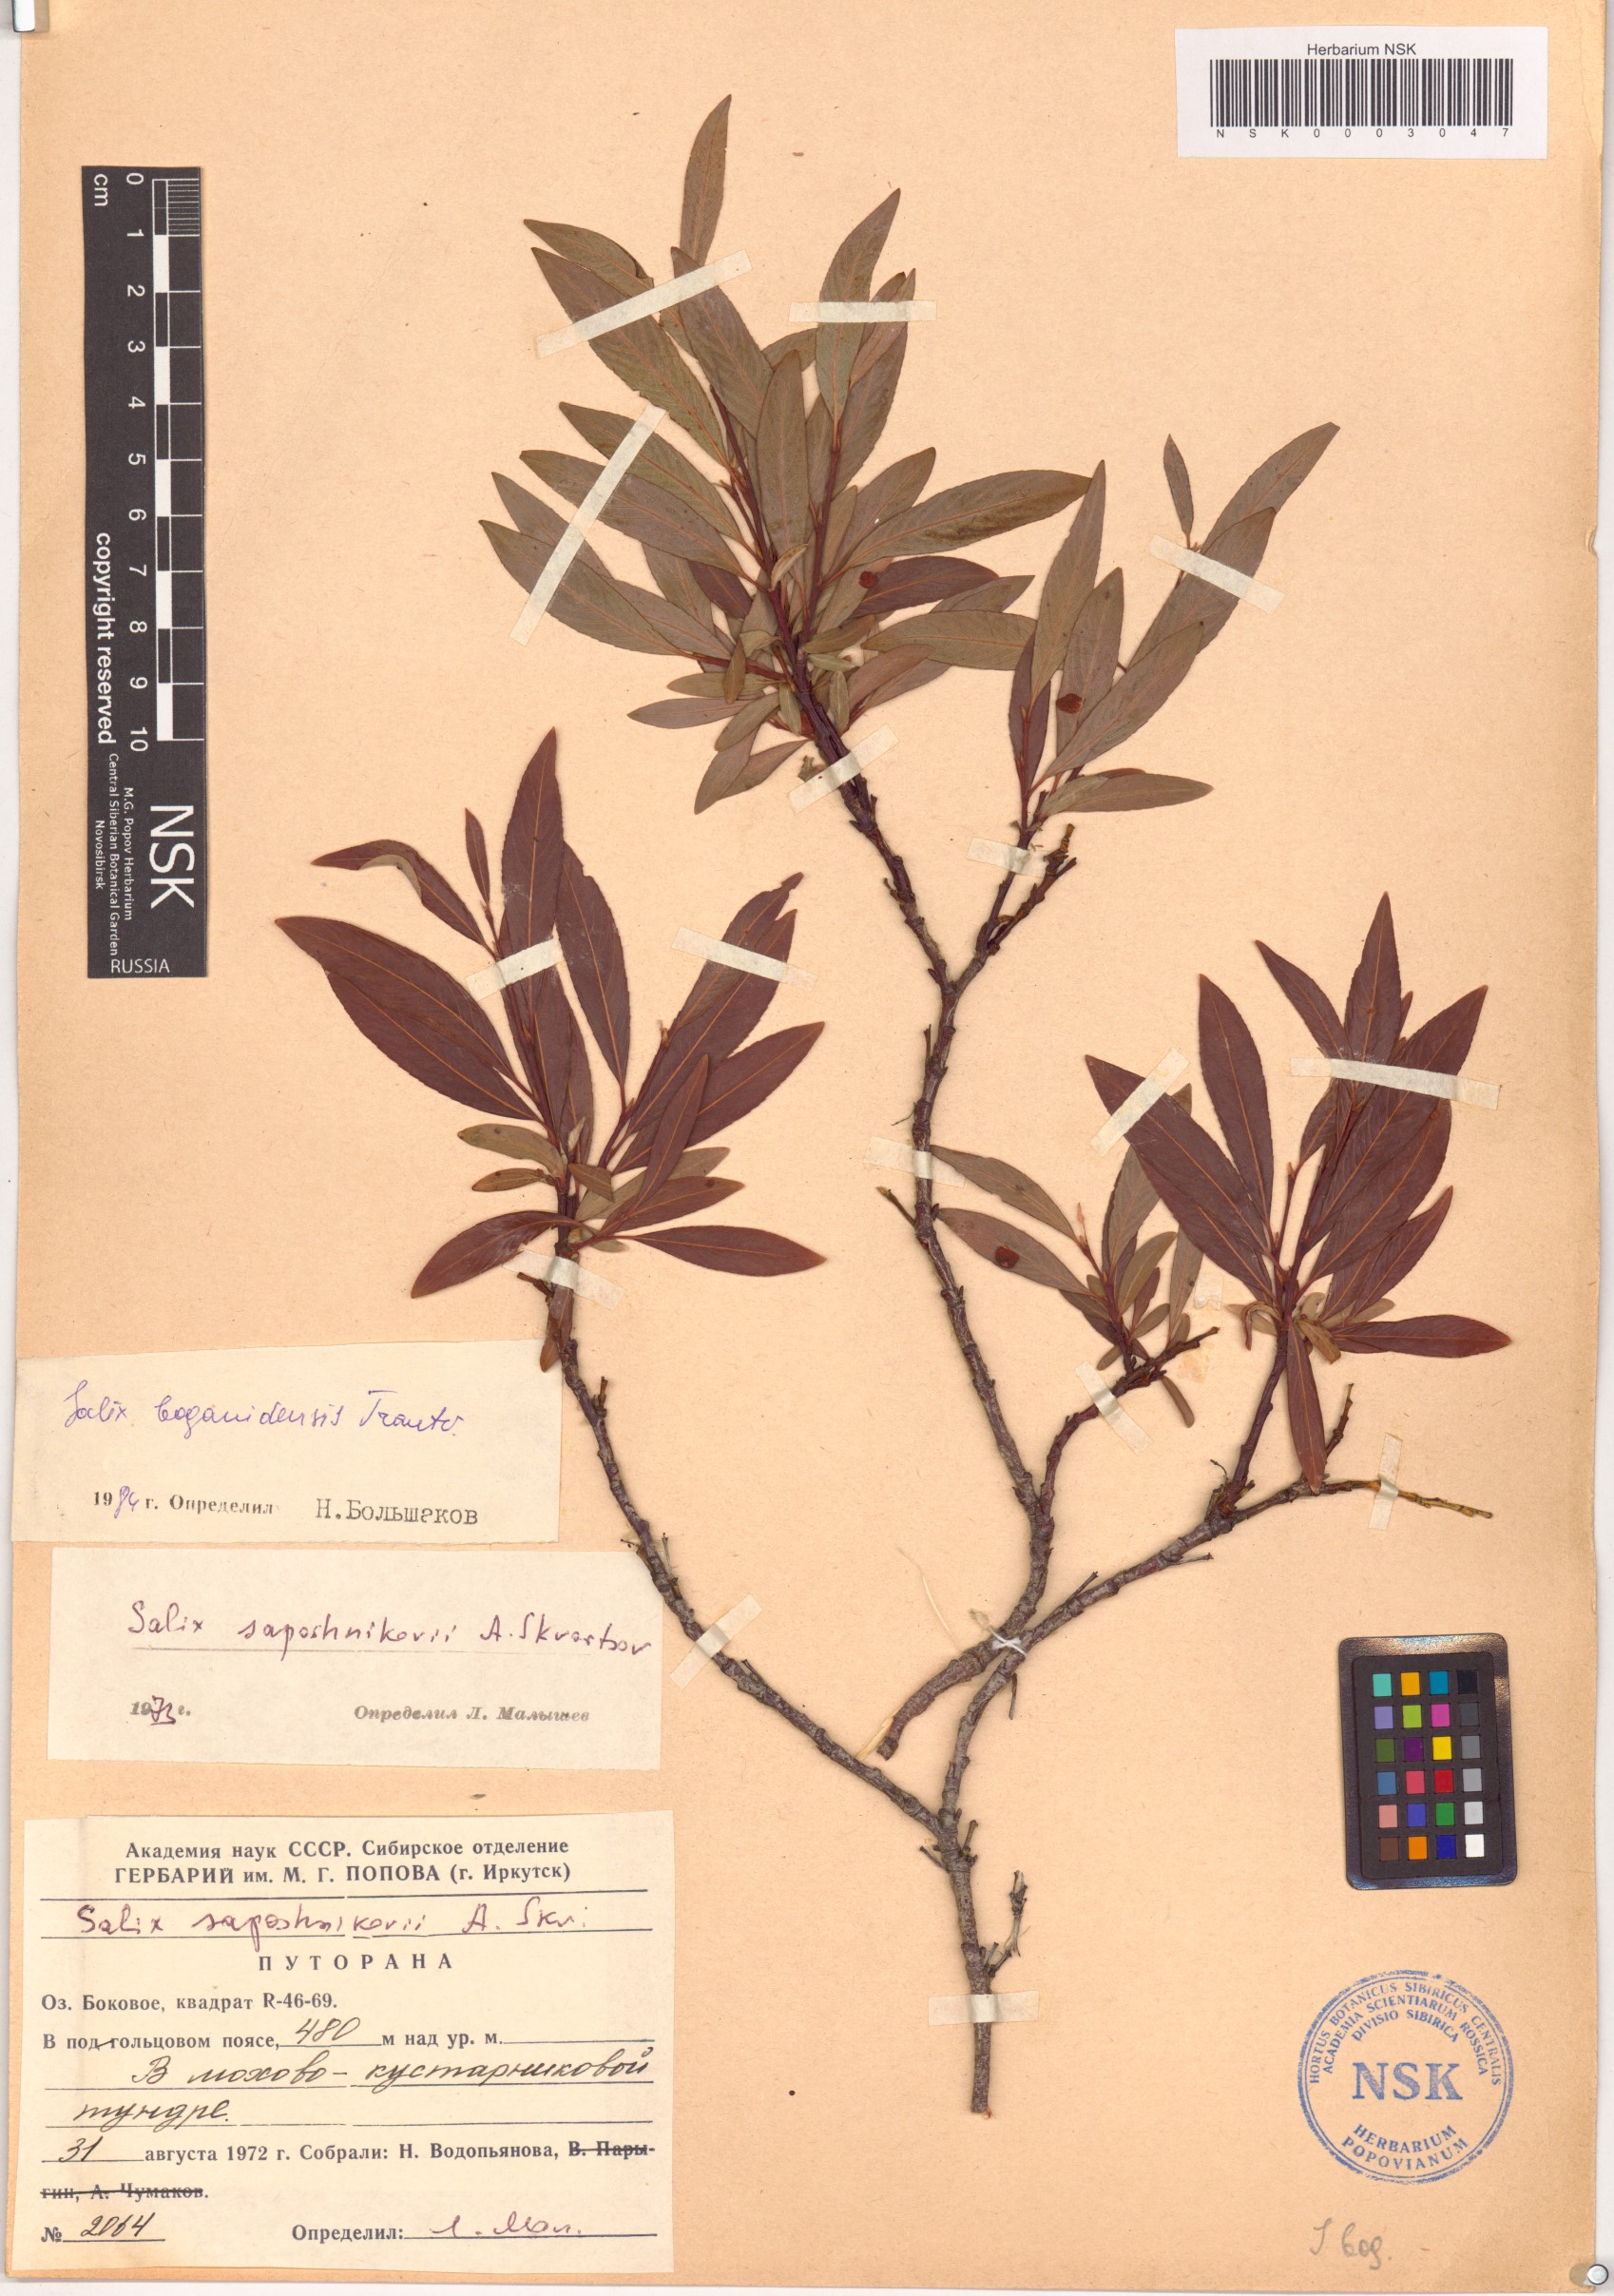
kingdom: Plantae
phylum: Tracheophyta
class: Magnoliopsida
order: Malpighiales
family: Salicaceae
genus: Salix
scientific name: Salix boganidensis
